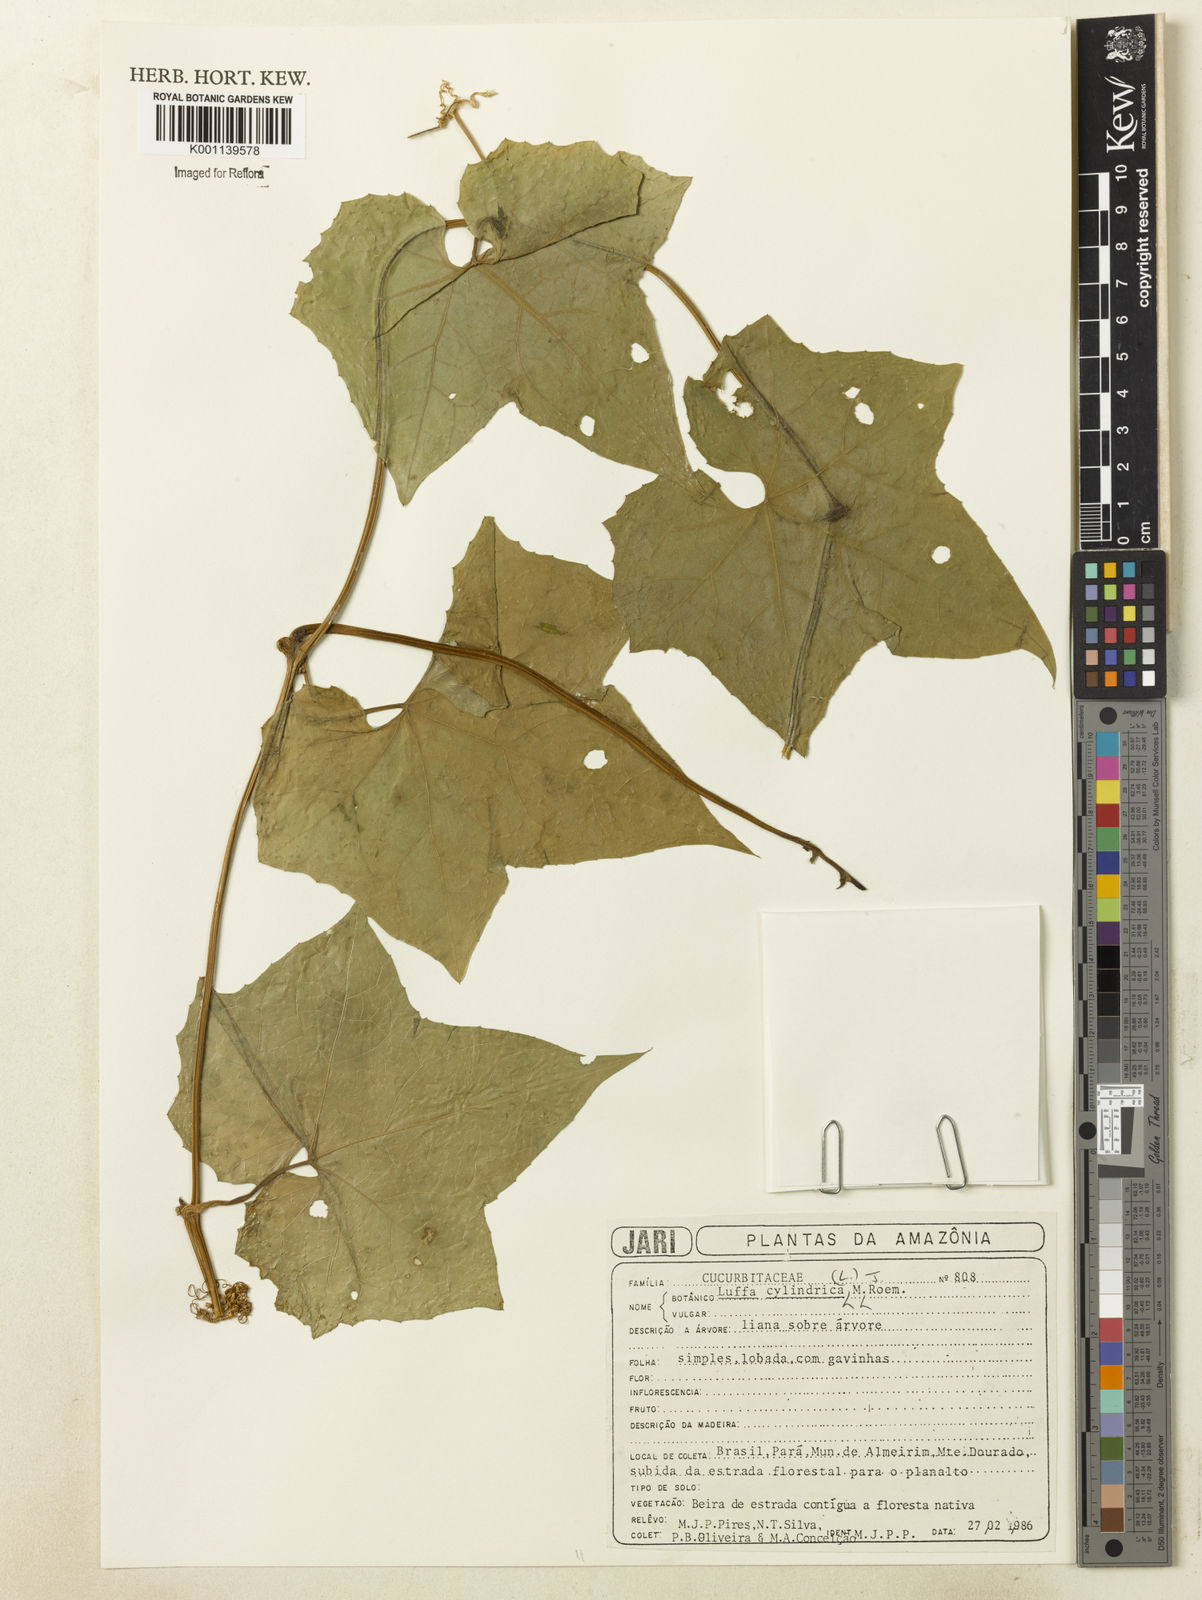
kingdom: Plantae
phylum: Tracheophyta
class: Magnoliopsida
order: Cucurbitales
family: Cucurbitaceae
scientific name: Cucurbitaceae
